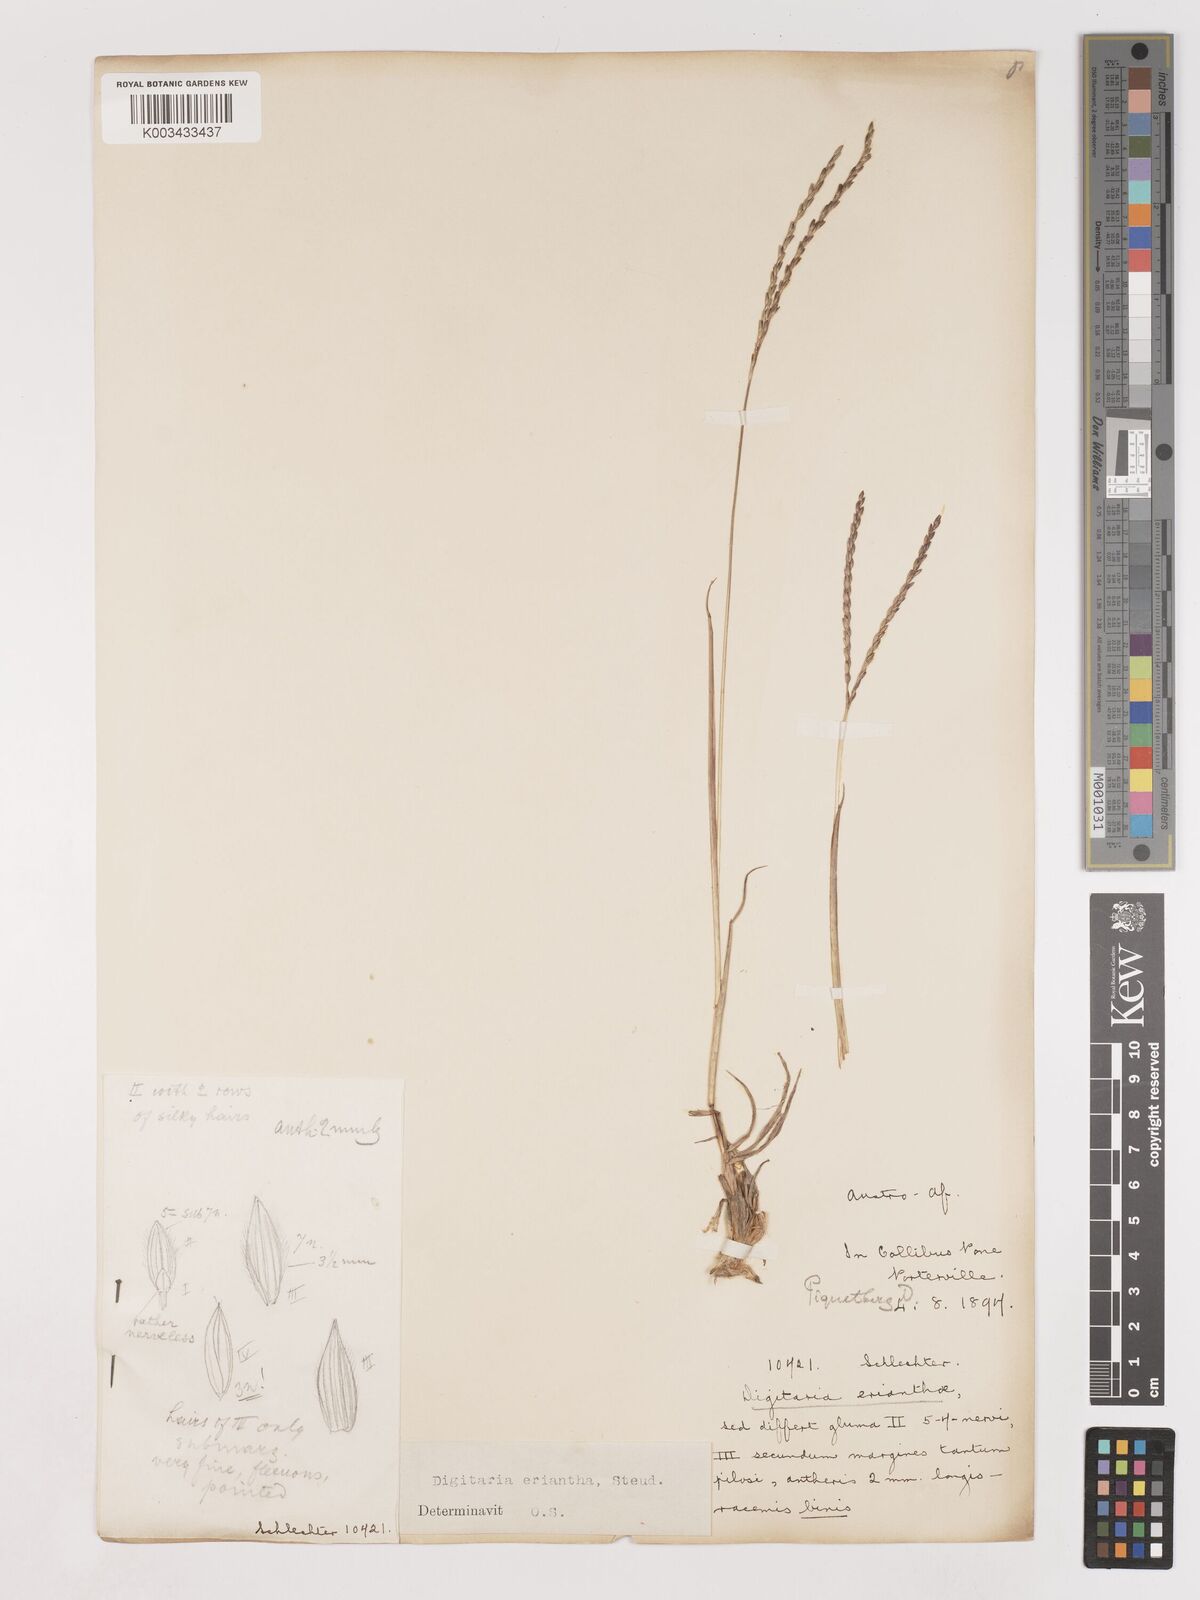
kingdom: Plantae
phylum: Tracheophyta
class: Liliopsida
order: Poales
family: Poaceae
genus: Digitaria
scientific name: Digitaria eriantha
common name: Digitgrass
